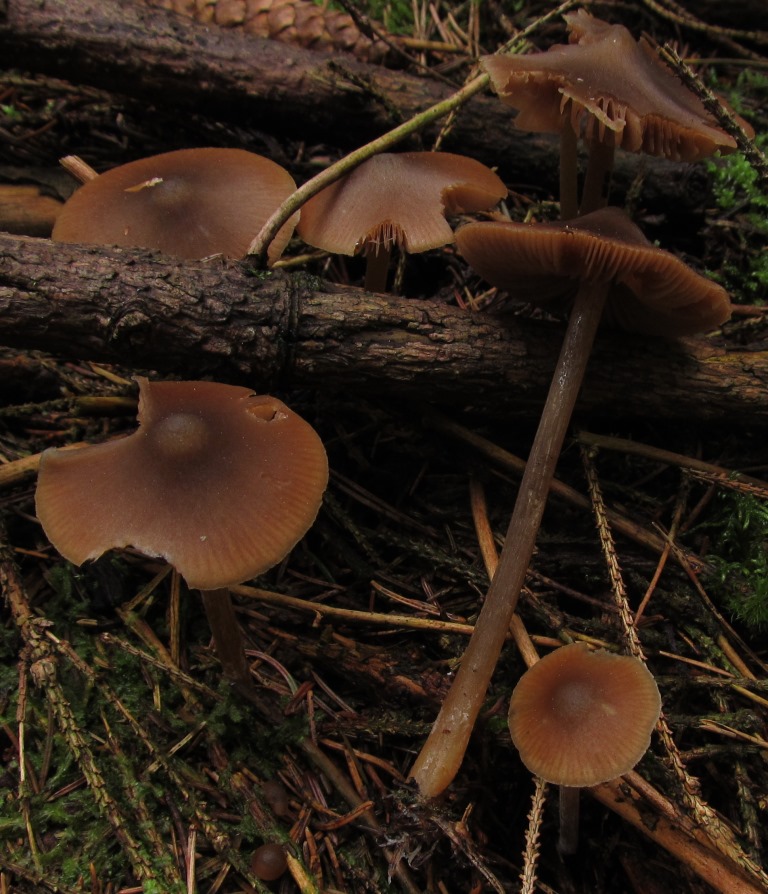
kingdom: Fungi
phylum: Basidiomycota
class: Agaricomycetes
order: Agaricales
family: Entolomataceae
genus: Entoloma
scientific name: Entoloma cetratum
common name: voks-rødblad
